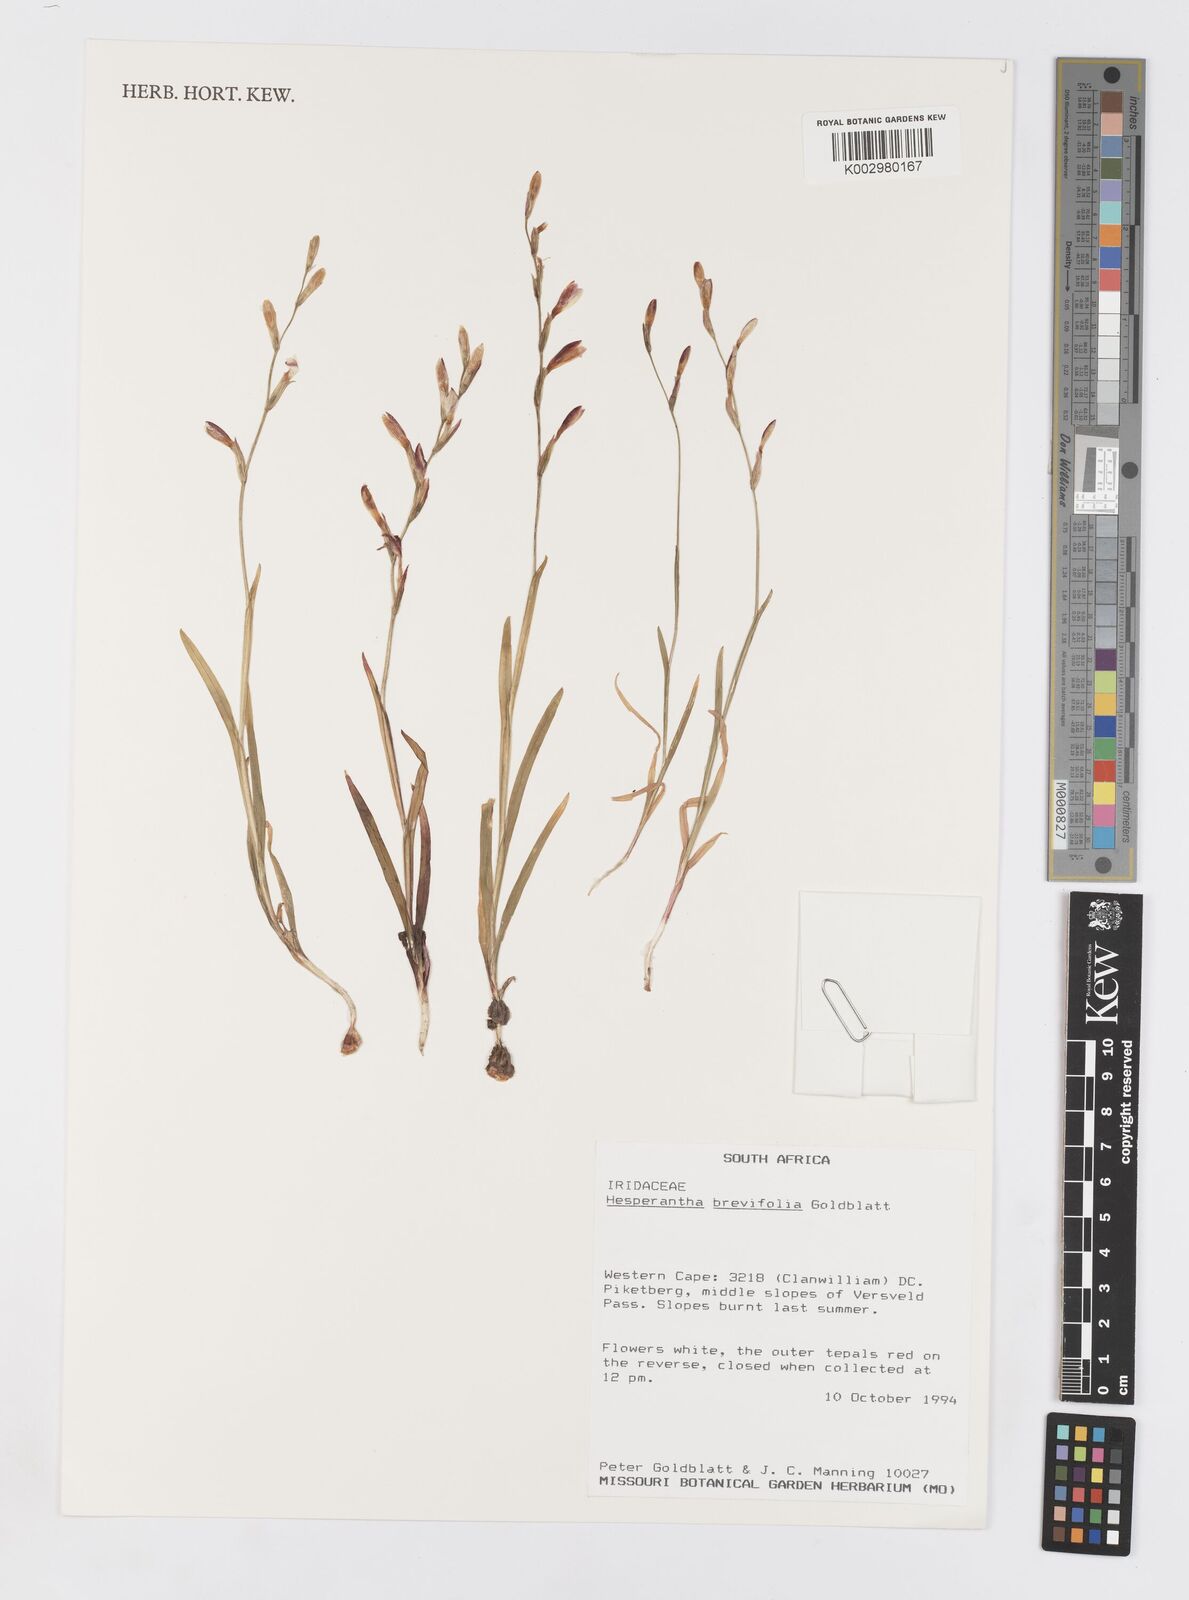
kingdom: Plantae
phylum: Tracheophyta
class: Liliopsida
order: Asparagales
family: Iridaceae
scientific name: Iridaceae
